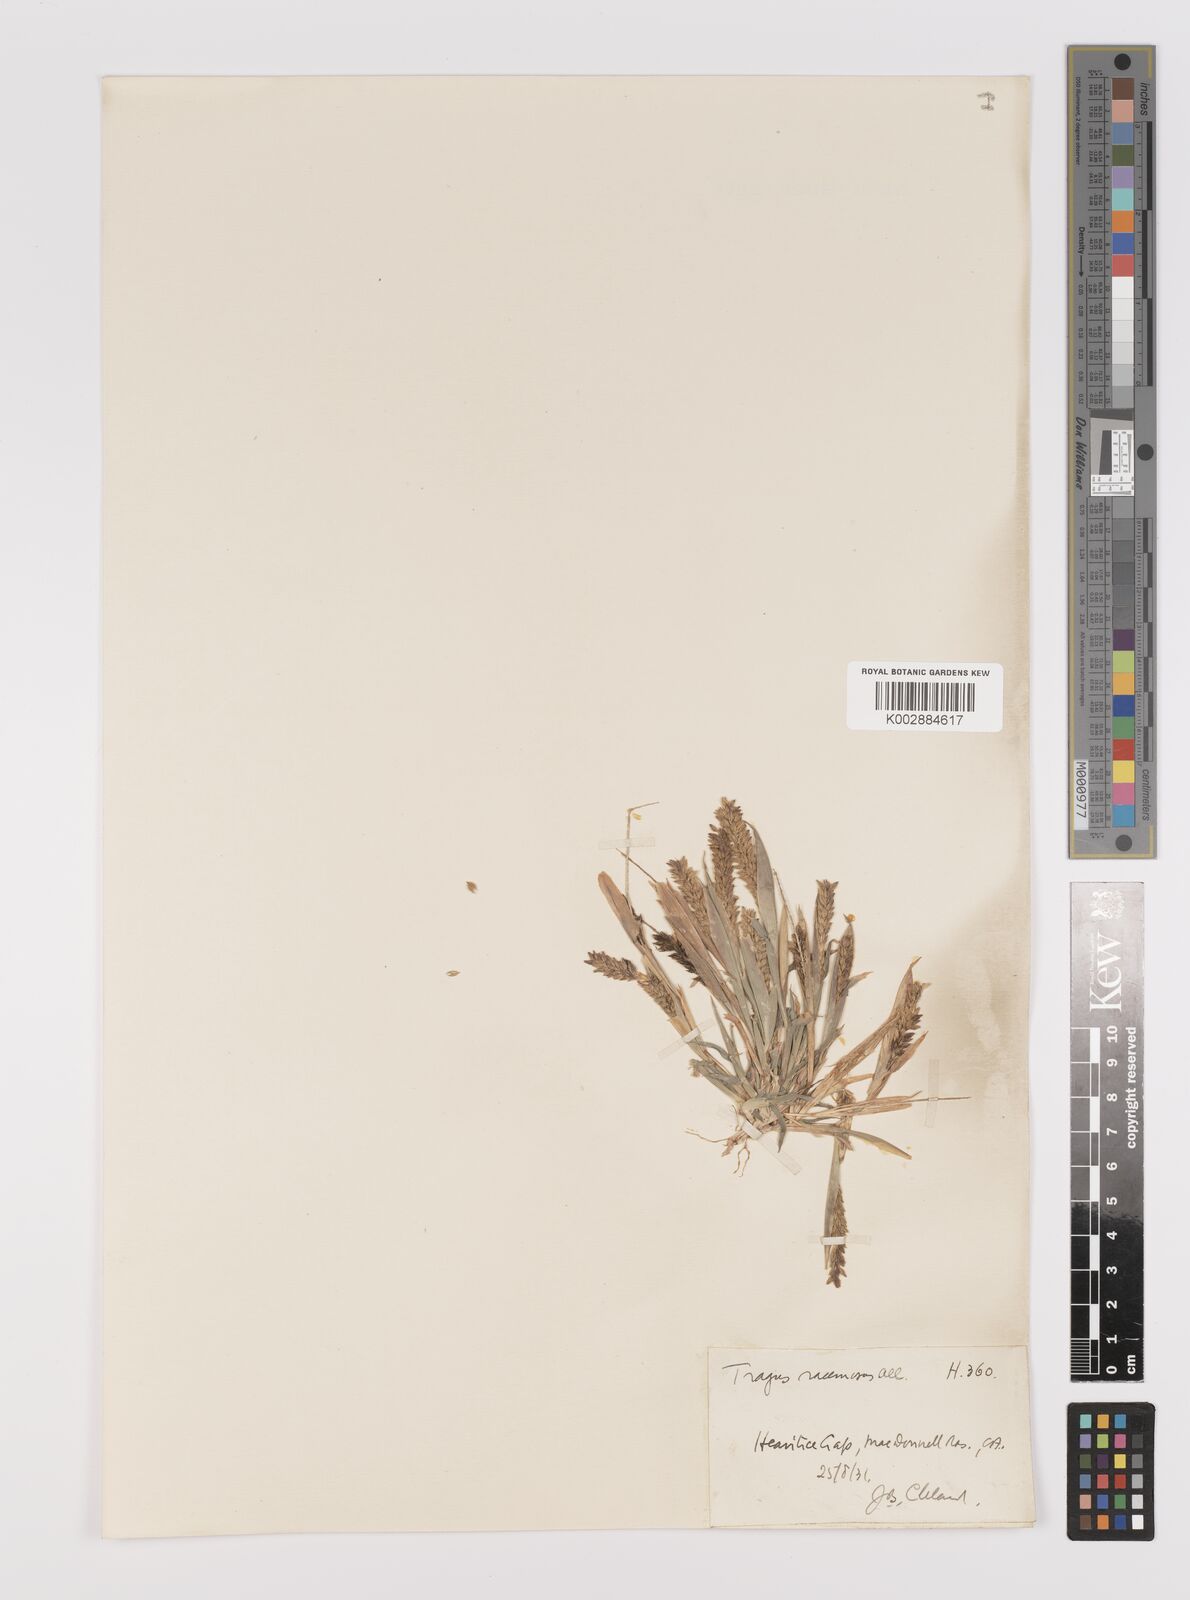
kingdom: Plantae
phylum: Tracheophyta
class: Liliopsida
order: Poales
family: Poaceae
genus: Tragus
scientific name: Tragus australianus
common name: Australian bur-grass
